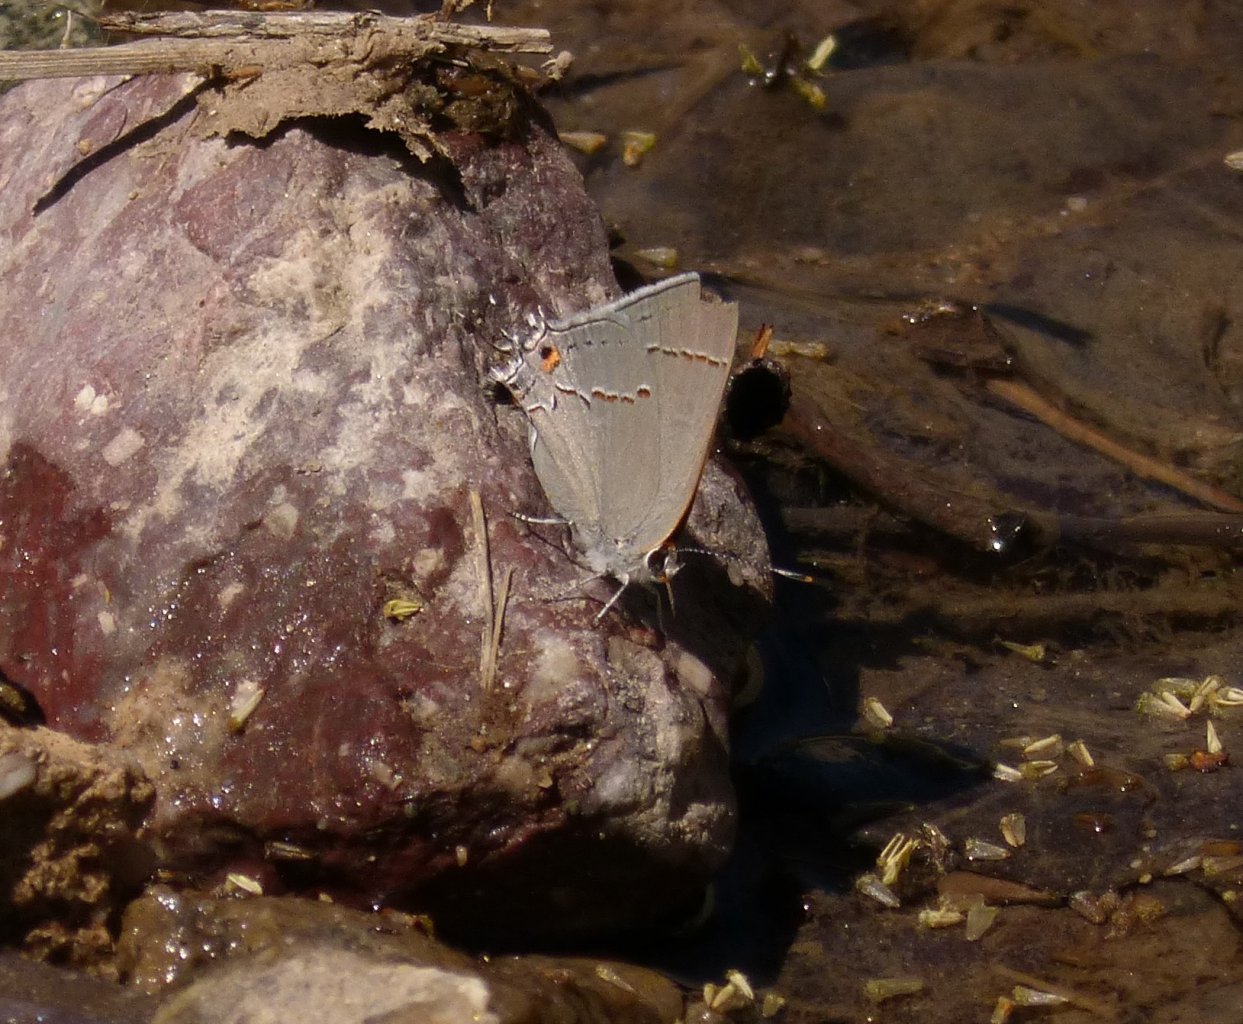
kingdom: Animalia
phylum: Arthropoda
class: Insecta
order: Lepidoptera
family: Lycaenidae
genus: Strymon
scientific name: Strymon melinus
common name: Gray Hairstreak
